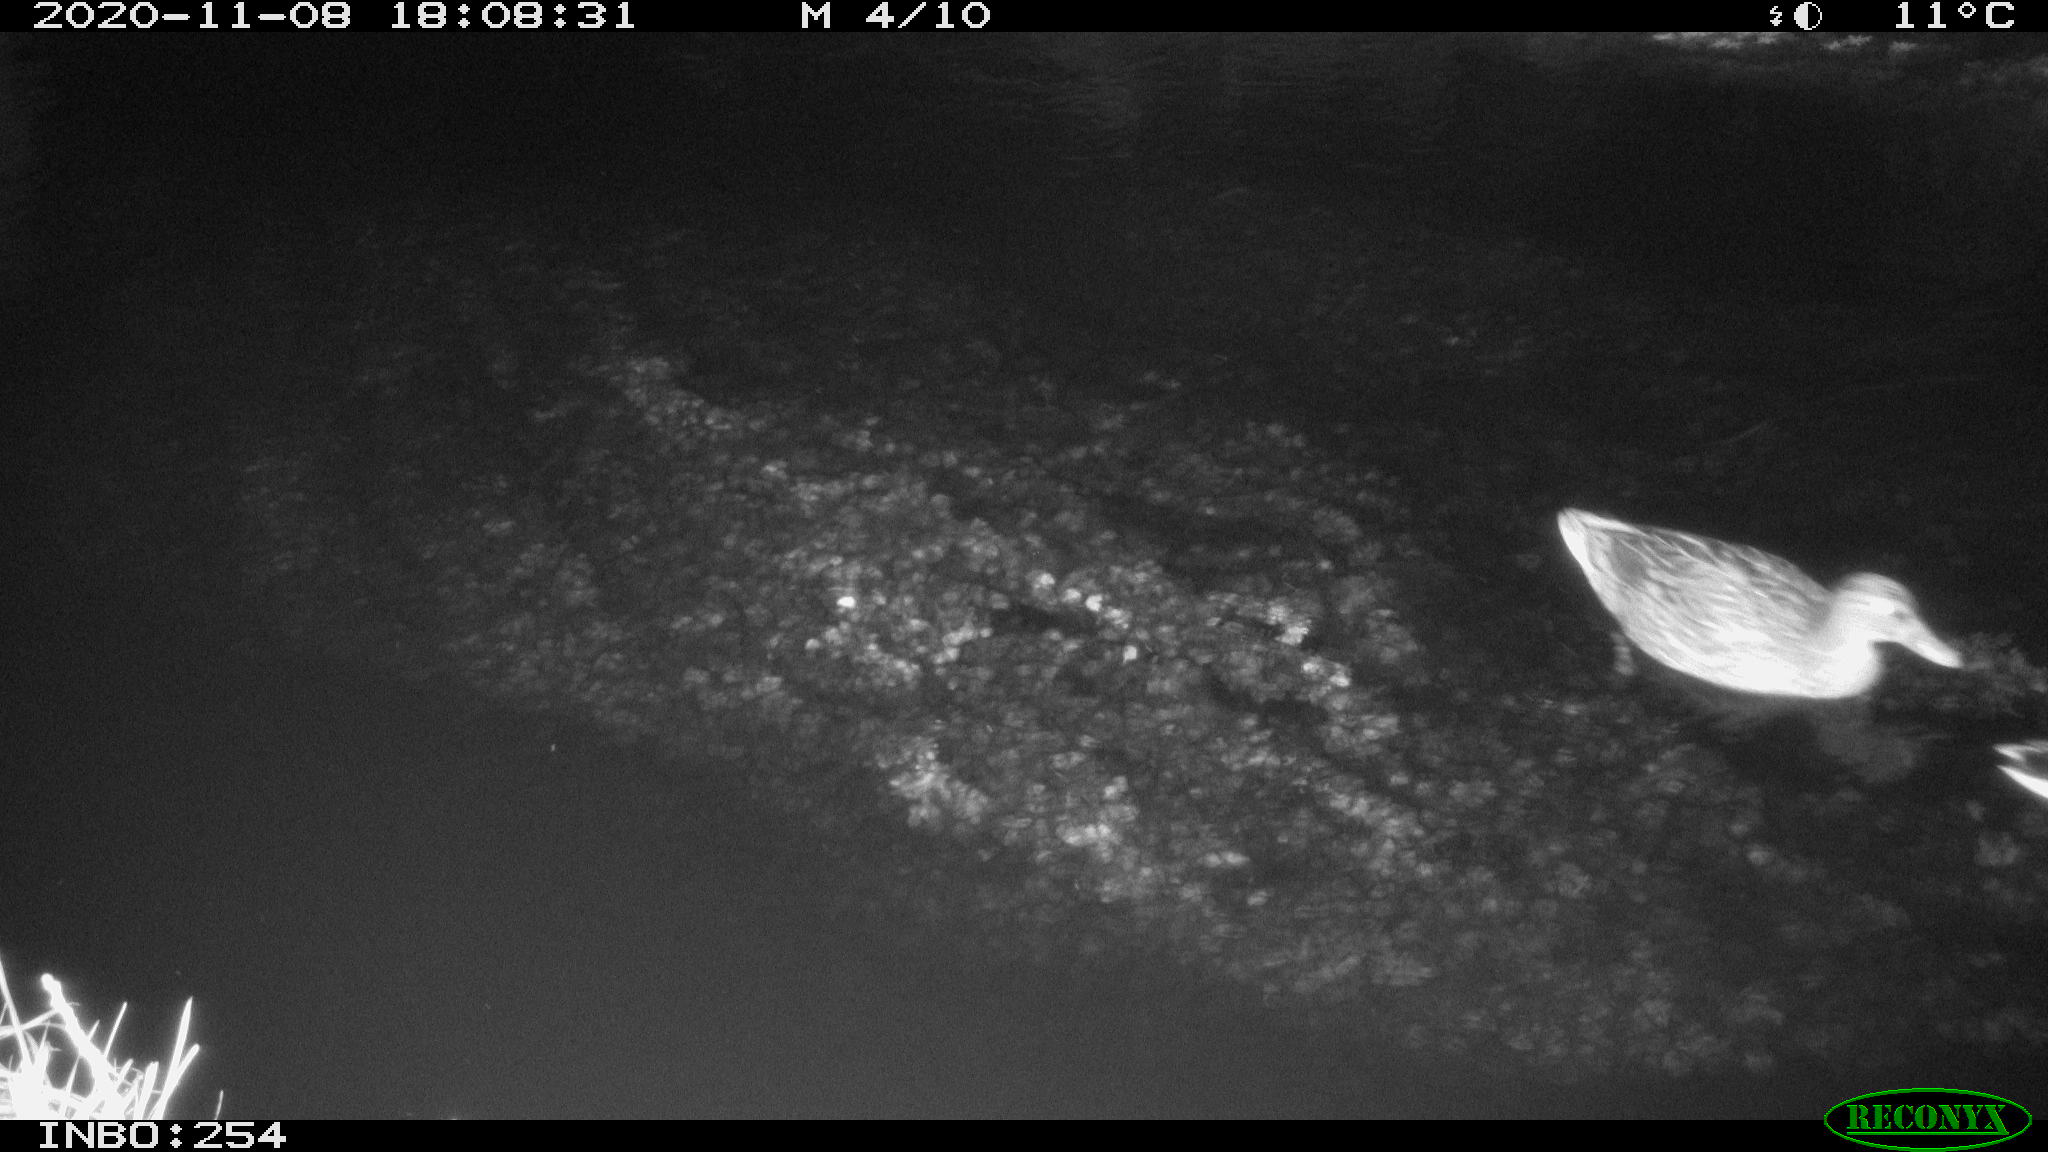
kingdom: Animalia
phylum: Chordata
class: Aves
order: Anseriformes
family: Anatidae
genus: Anas
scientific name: Anas platyrhynchos
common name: Mallard
